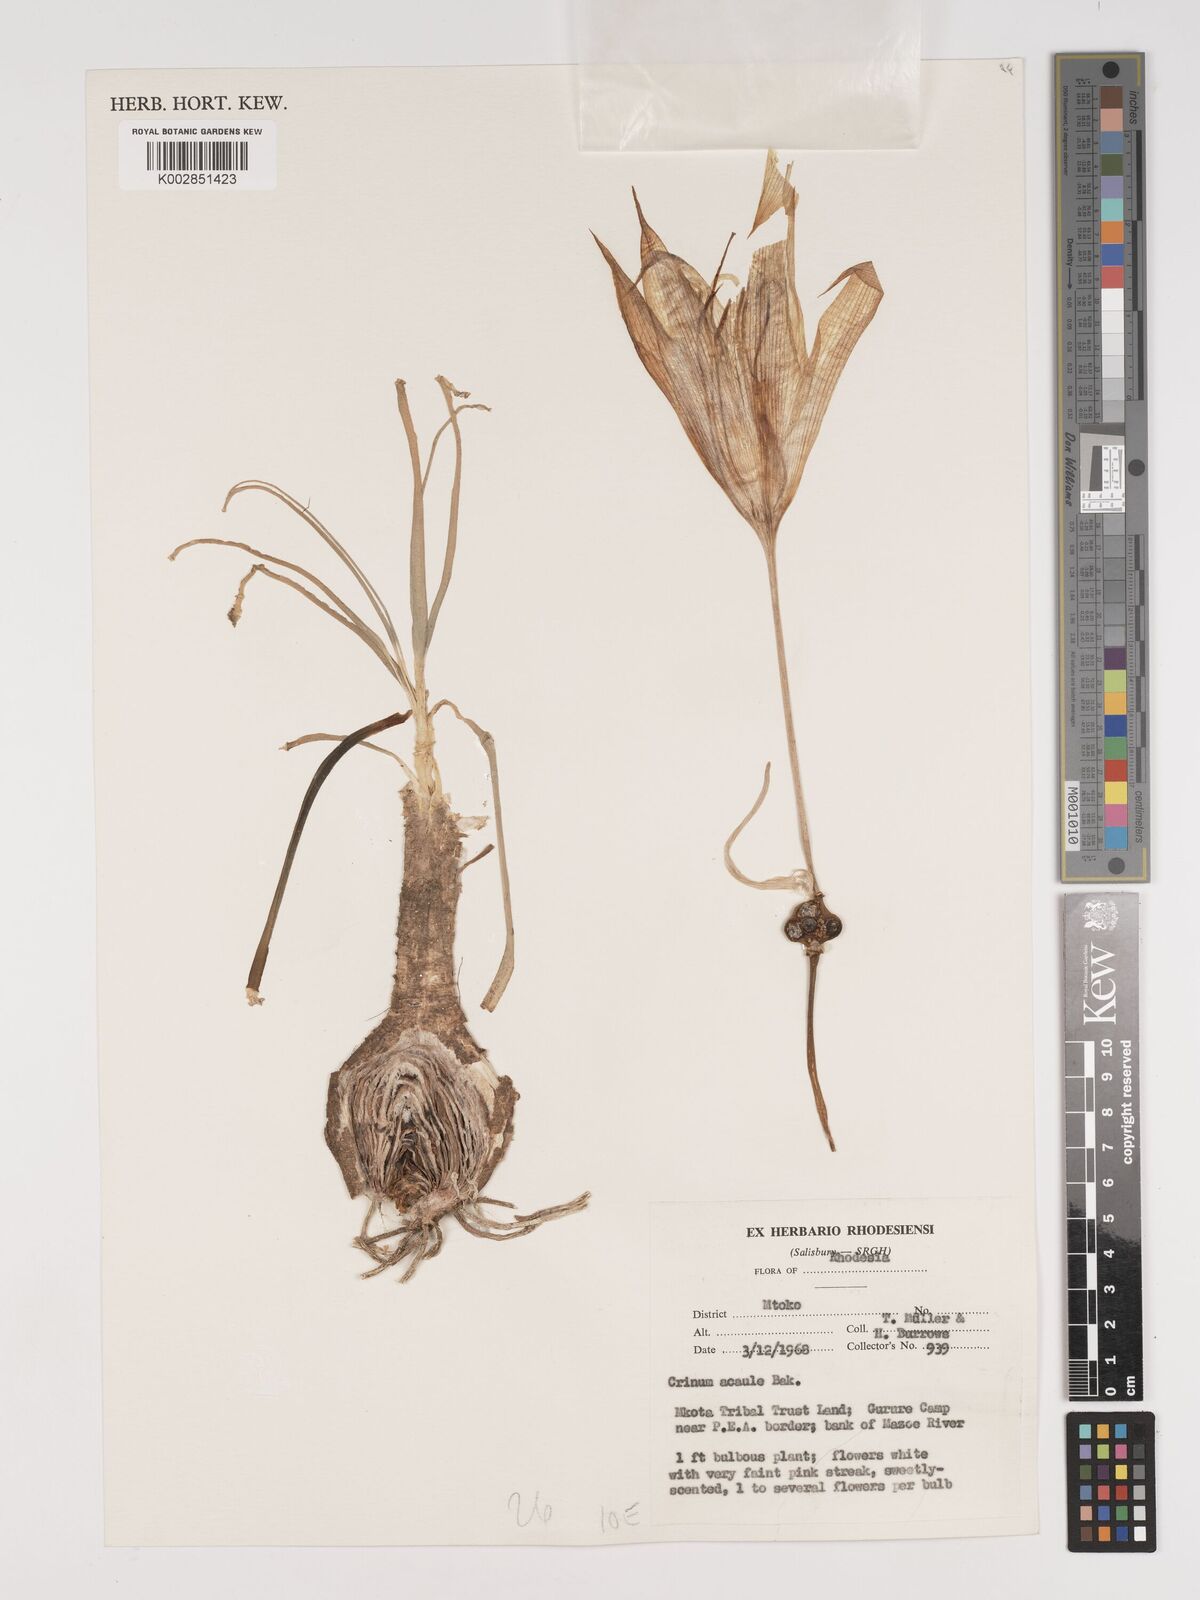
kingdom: Plantae
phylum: Tracheophyta
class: Liliopsida
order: Asparagales
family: Amaryllidaceae
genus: Crinum
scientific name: Crinum walteri
